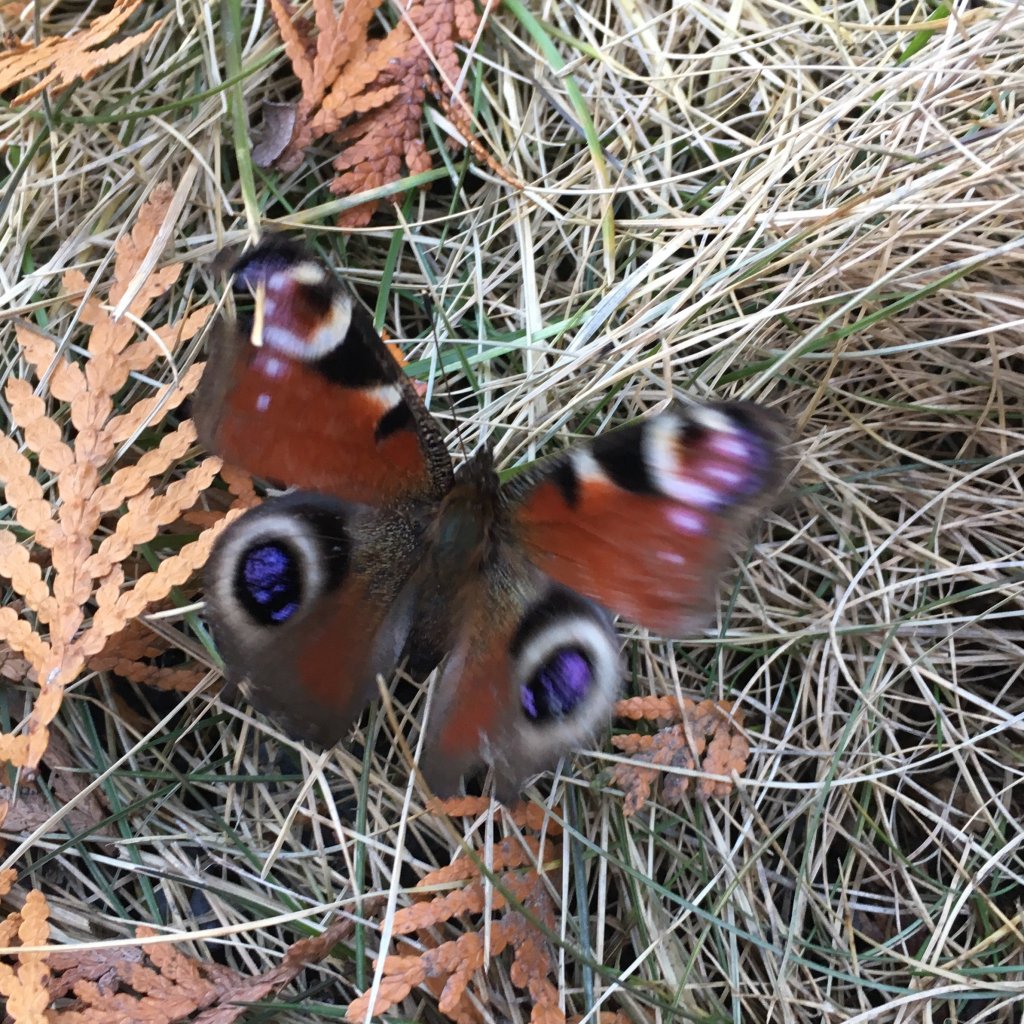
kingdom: Animalia
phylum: Arthropoda
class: Insecta
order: Lepidoptera
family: Nymphalidae
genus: Aglais
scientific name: Aglais io
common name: European Peacock
